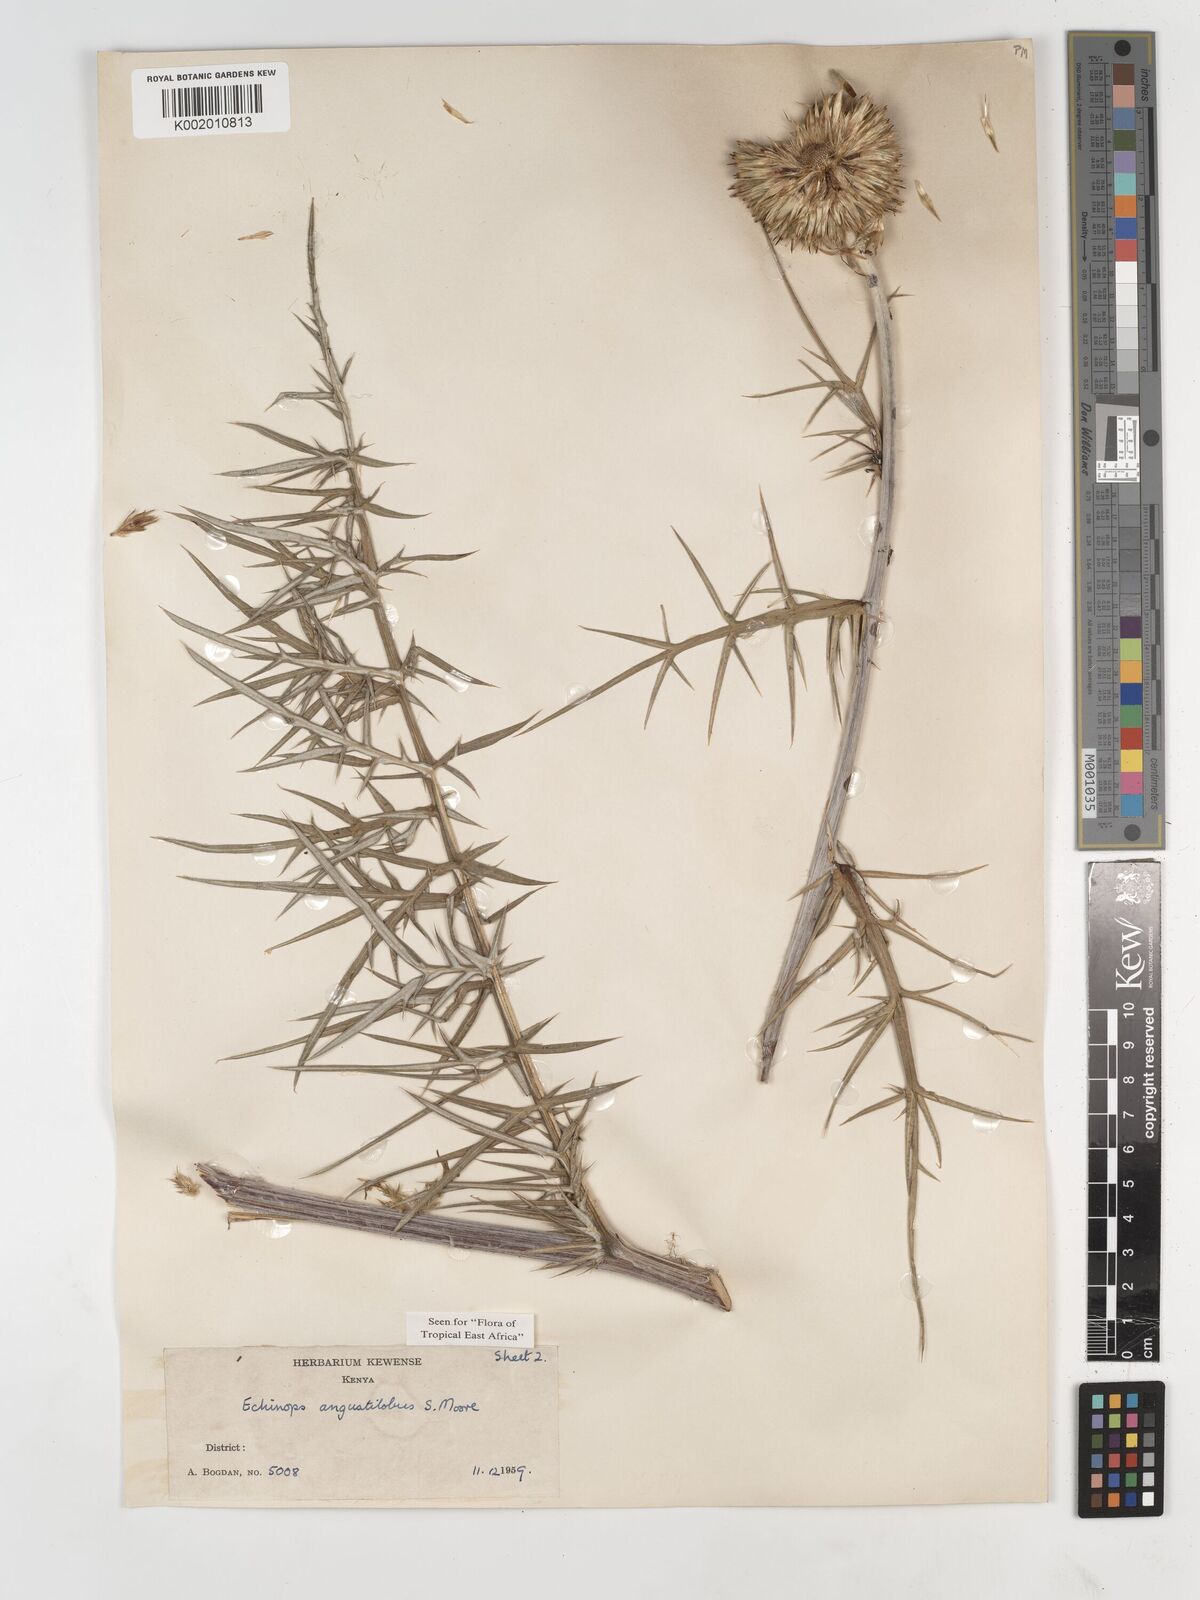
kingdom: Plantae
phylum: Tracheophyta
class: Magnoliopsida
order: Asterales
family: Asteraceae
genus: Echinops
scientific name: Echinops angustilobus
